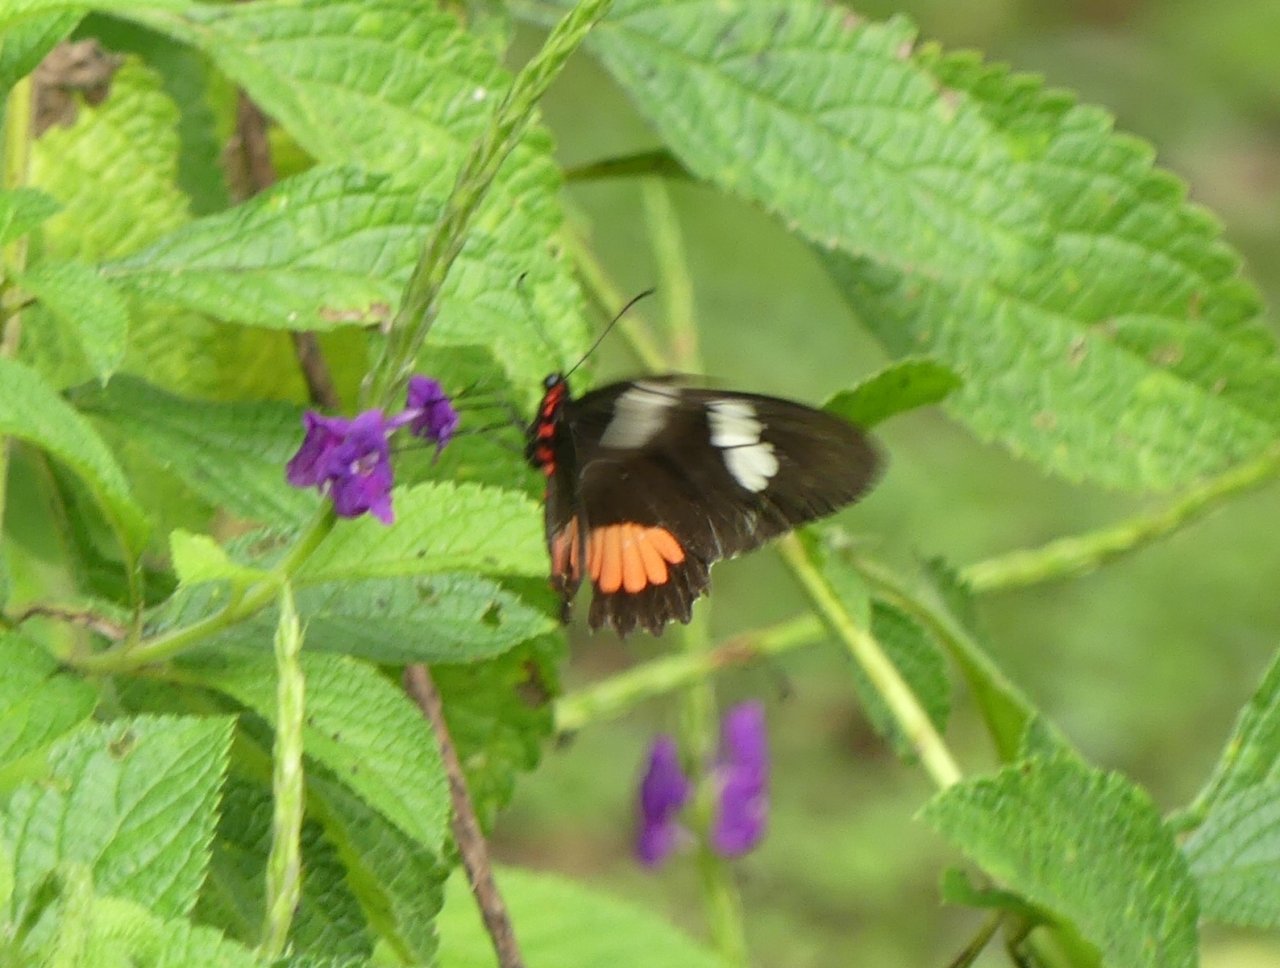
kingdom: Animalia
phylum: Arthropoda
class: Insecta
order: Lepidoptera
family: Papilionidae
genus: Parides
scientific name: Parides panares
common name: Wedge-spotted Cattleheart
